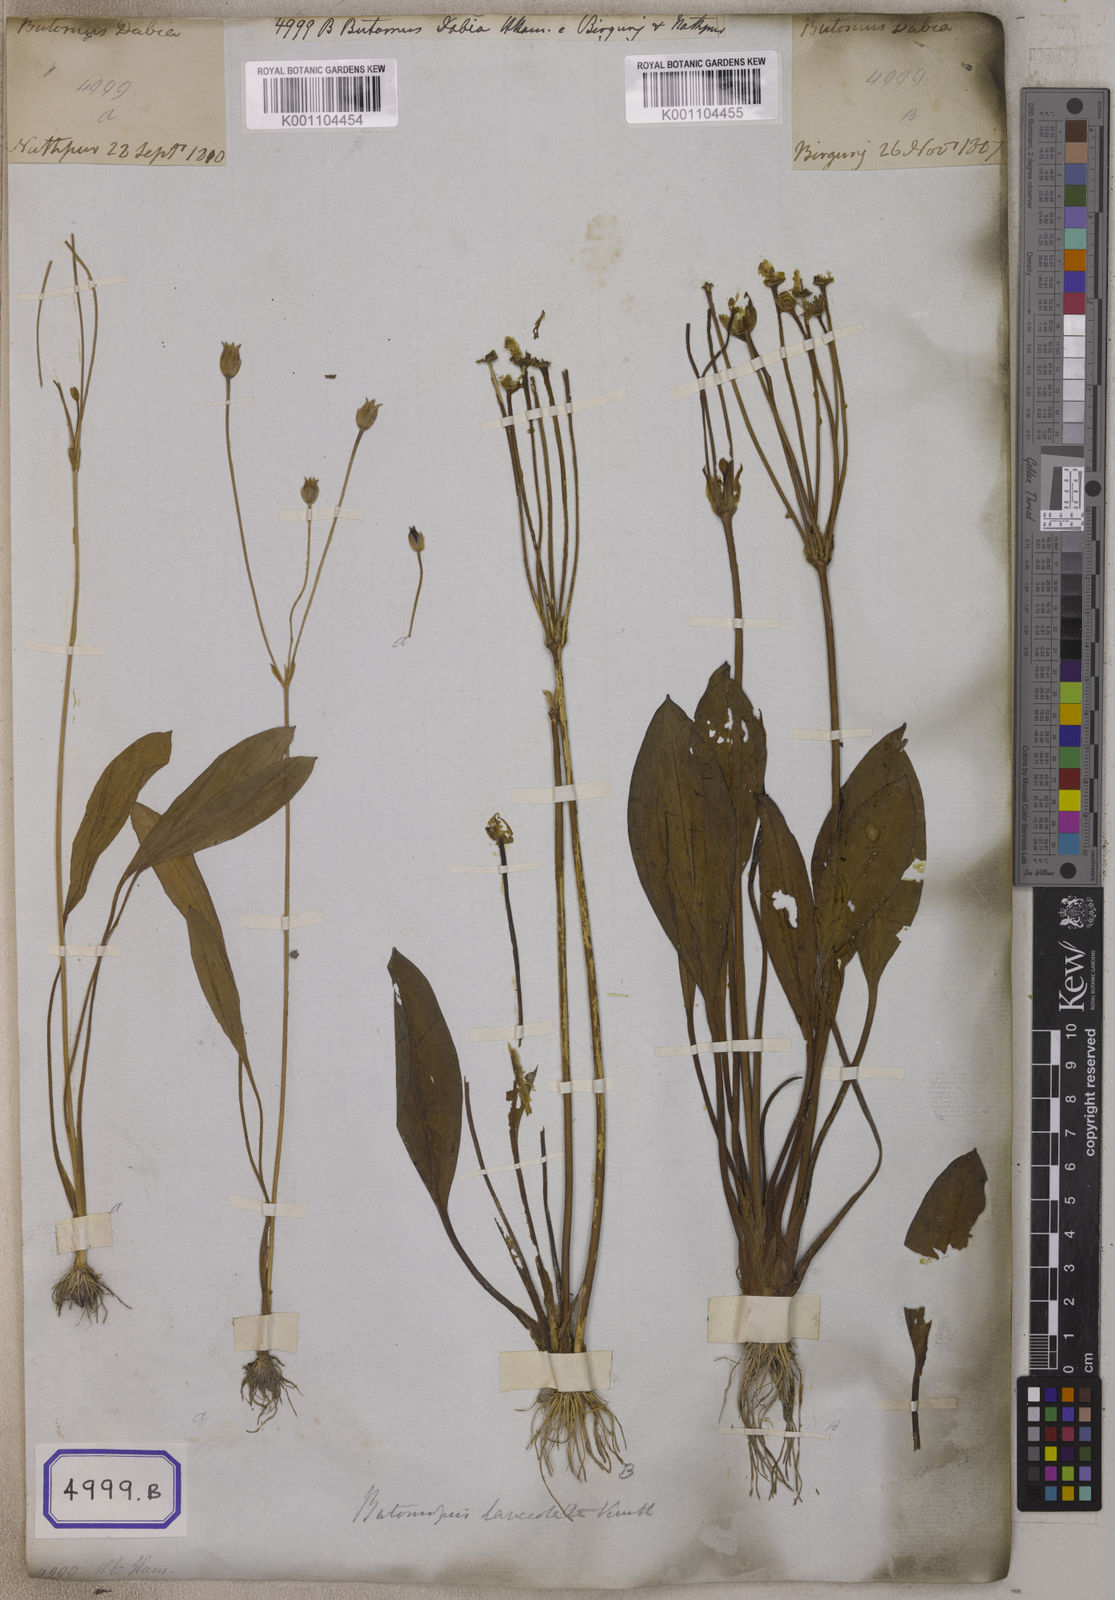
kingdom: Plantae
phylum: Tracheophyta
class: Liliopsida
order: Alismatales
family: Alismataceae
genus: Butomopsis
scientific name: Butomopsis latifolia
